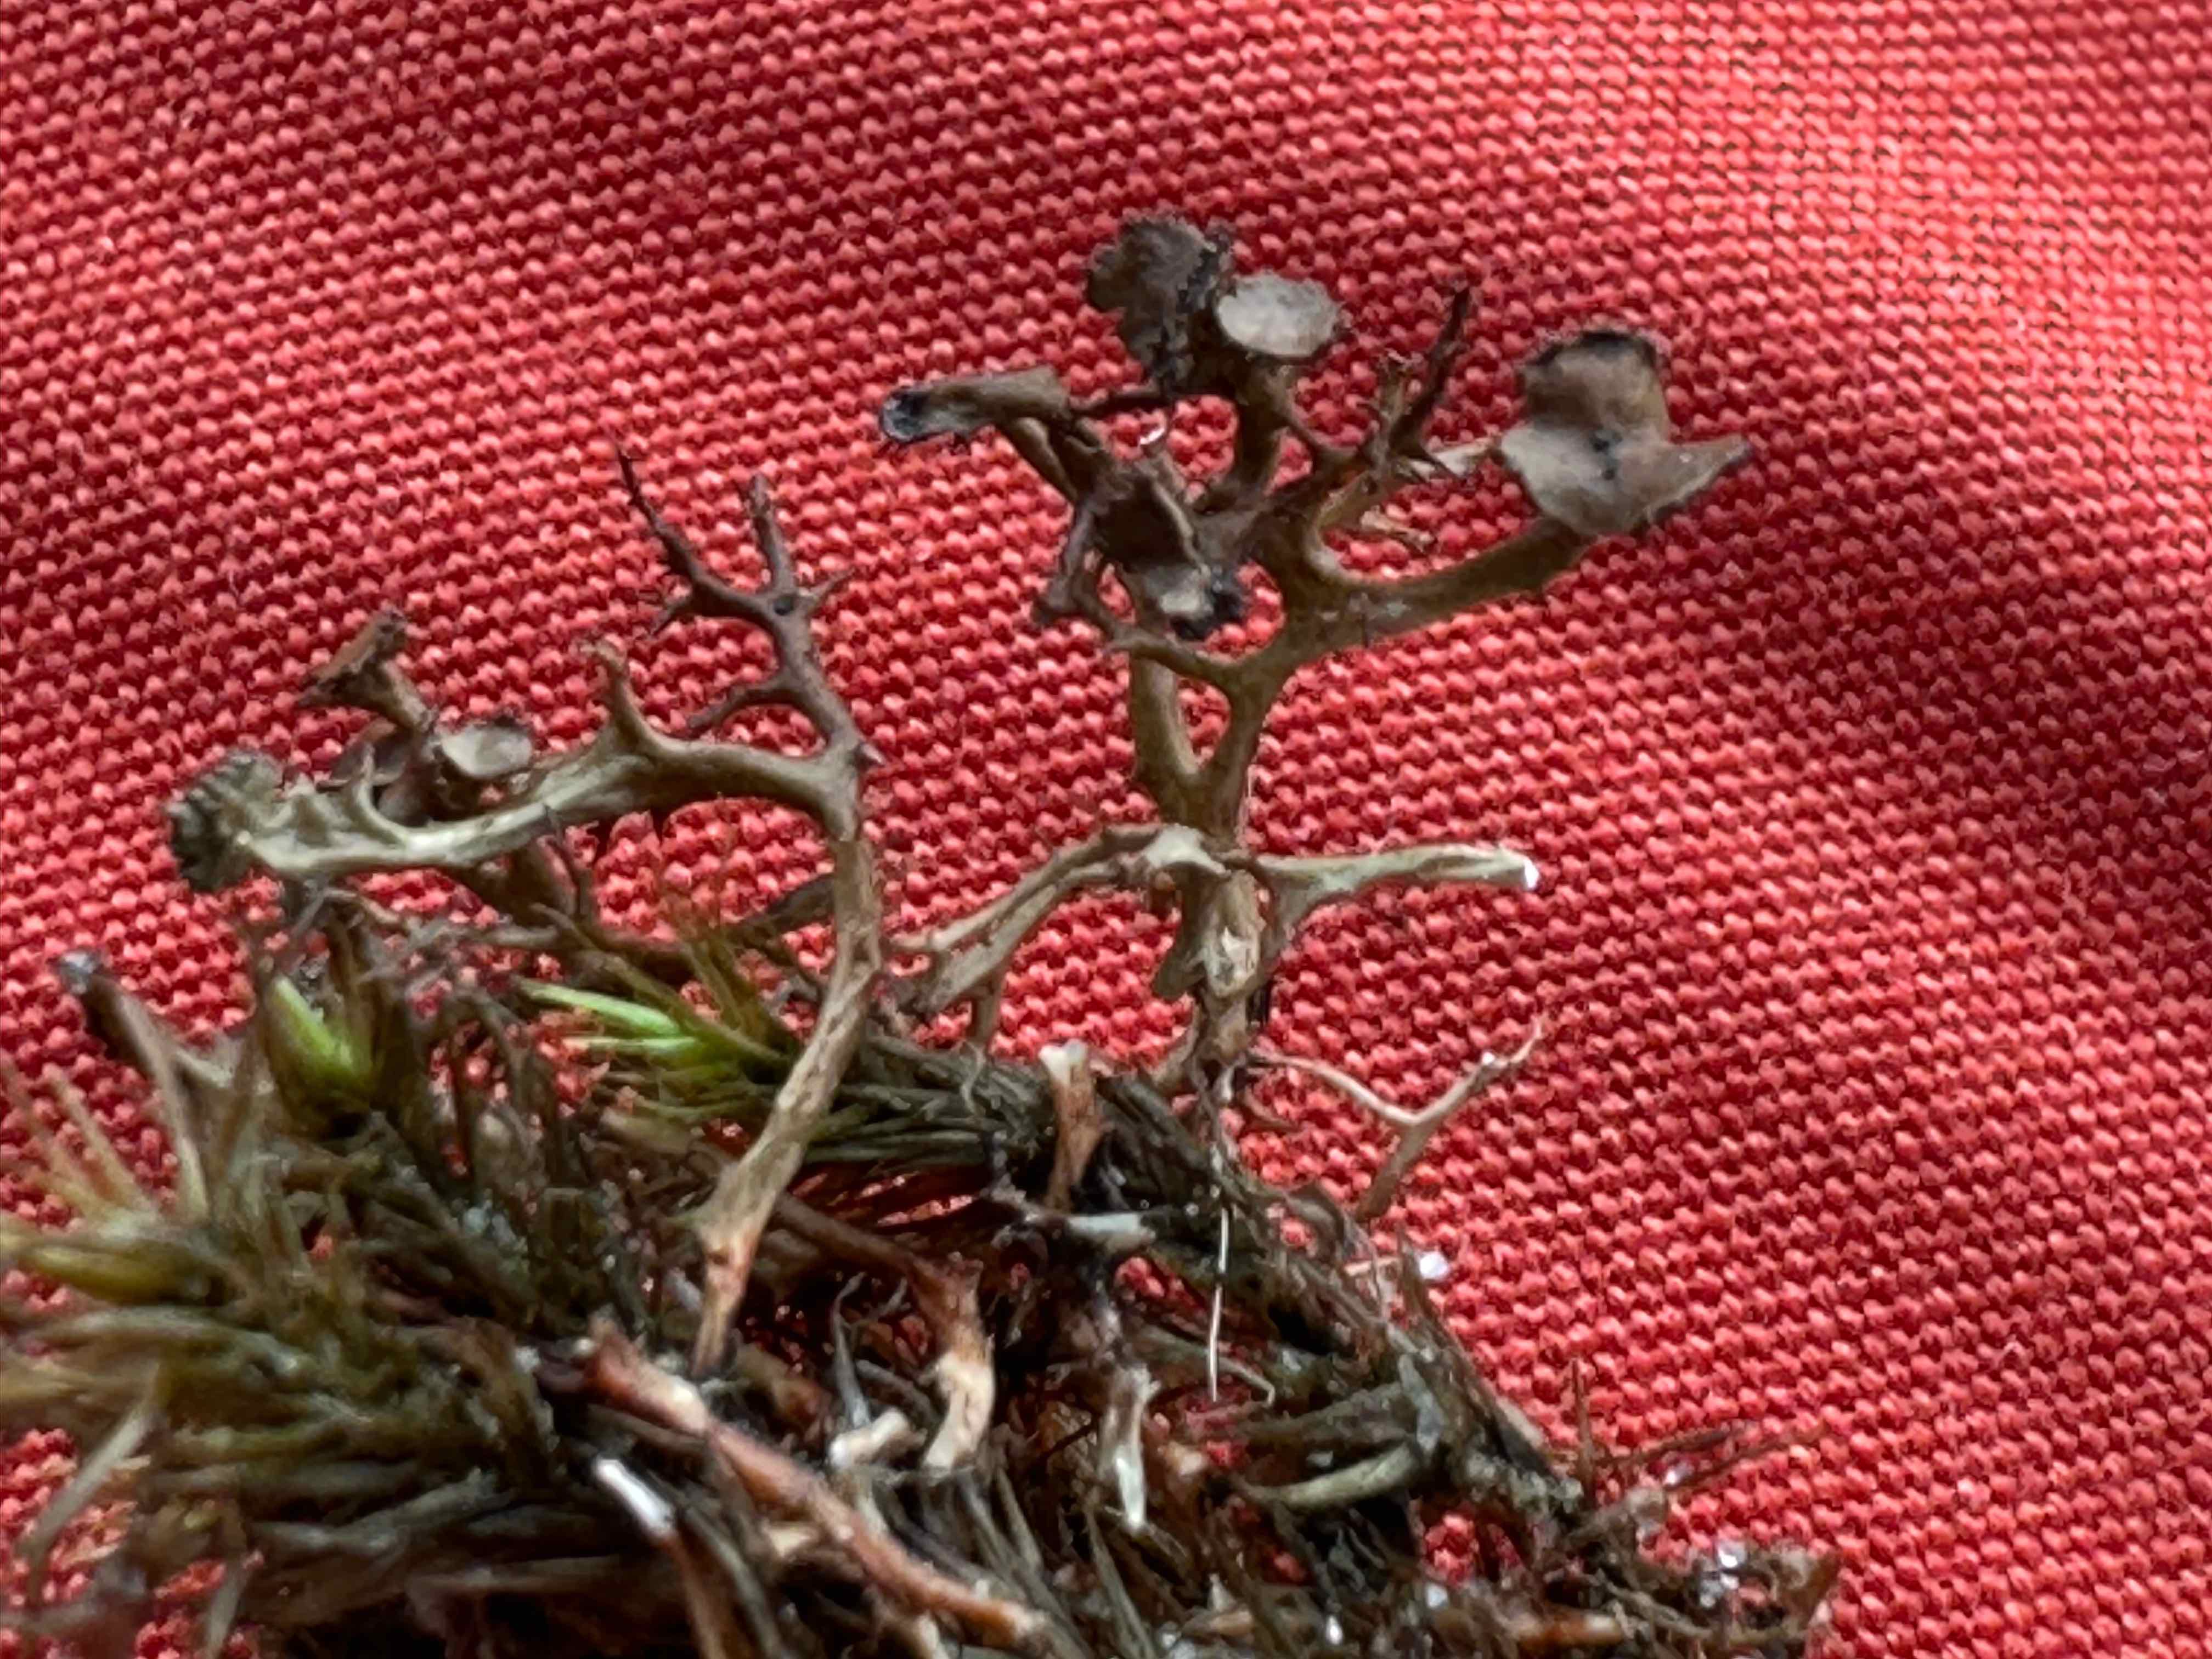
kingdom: Fungi
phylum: Ascomycota
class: Lecanoromycetes
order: Lecanorales
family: Parmeliaceae
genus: Cetraria
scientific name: Cetraria muricata
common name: tue-tjørnelav
